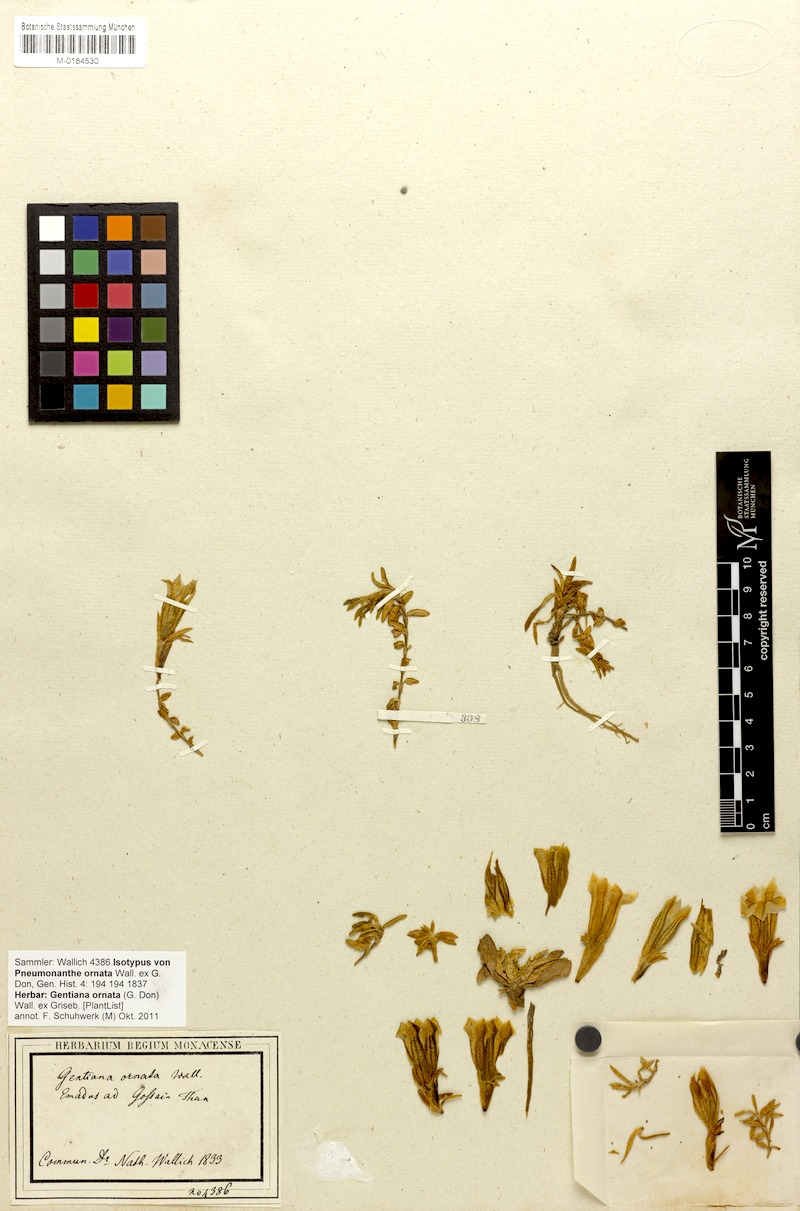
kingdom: Plantae
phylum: Tracheophyta
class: Magnoliopsida
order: Gentianales
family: Gentianaceae
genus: Gentiana
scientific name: Gentiana ornata
